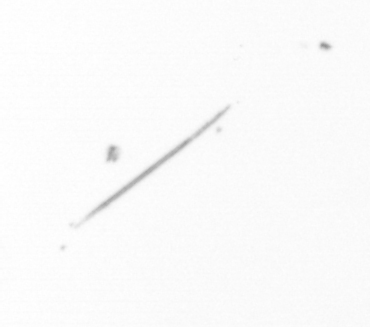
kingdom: Chromista
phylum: Ochrophyta
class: Bacillariophyceae
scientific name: Bacillariophyceae
